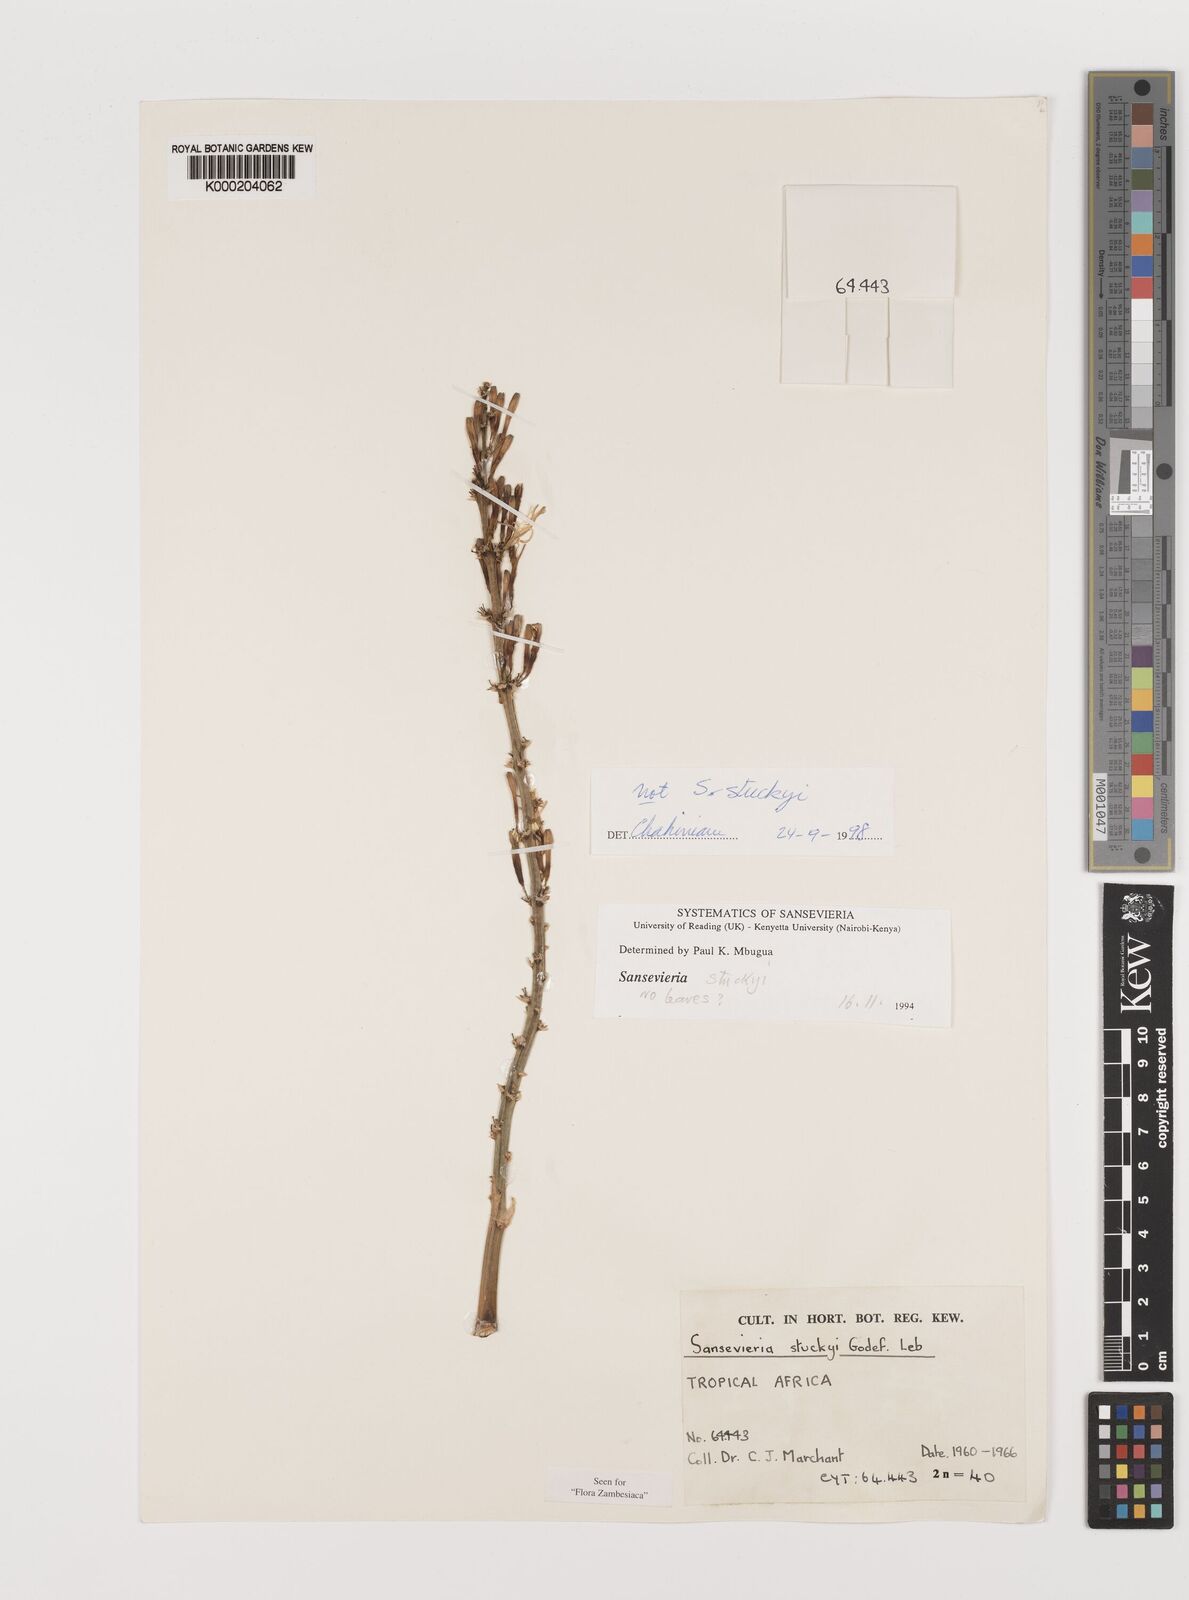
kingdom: Plantae
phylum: Tracheophyta
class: Liliopsida
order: Asparagales
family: Asparagaceae
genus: Dracaena
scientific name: Dracaena stuckyi
